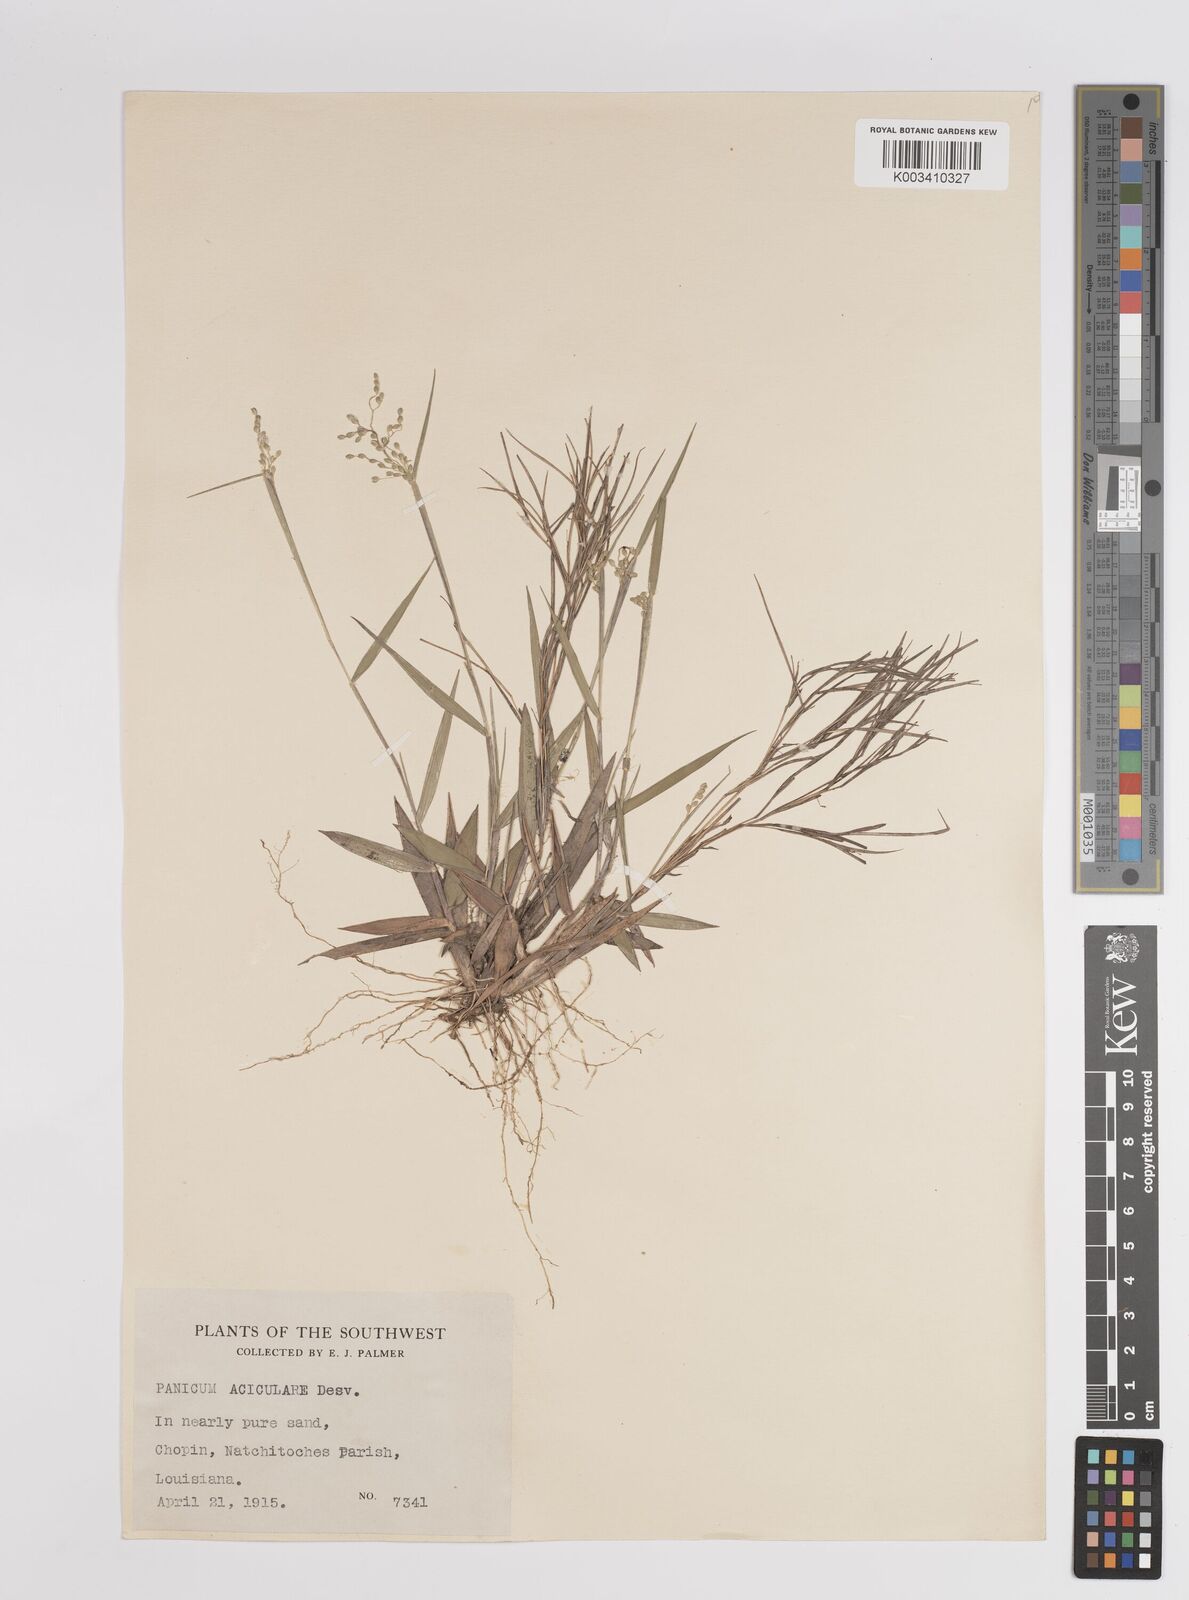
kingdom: Plantae
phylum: Tracheophyta
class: Liliopsida
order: Poales
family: Poaceae
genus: Dichanthelium
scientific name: Dichanthelium aciculare
